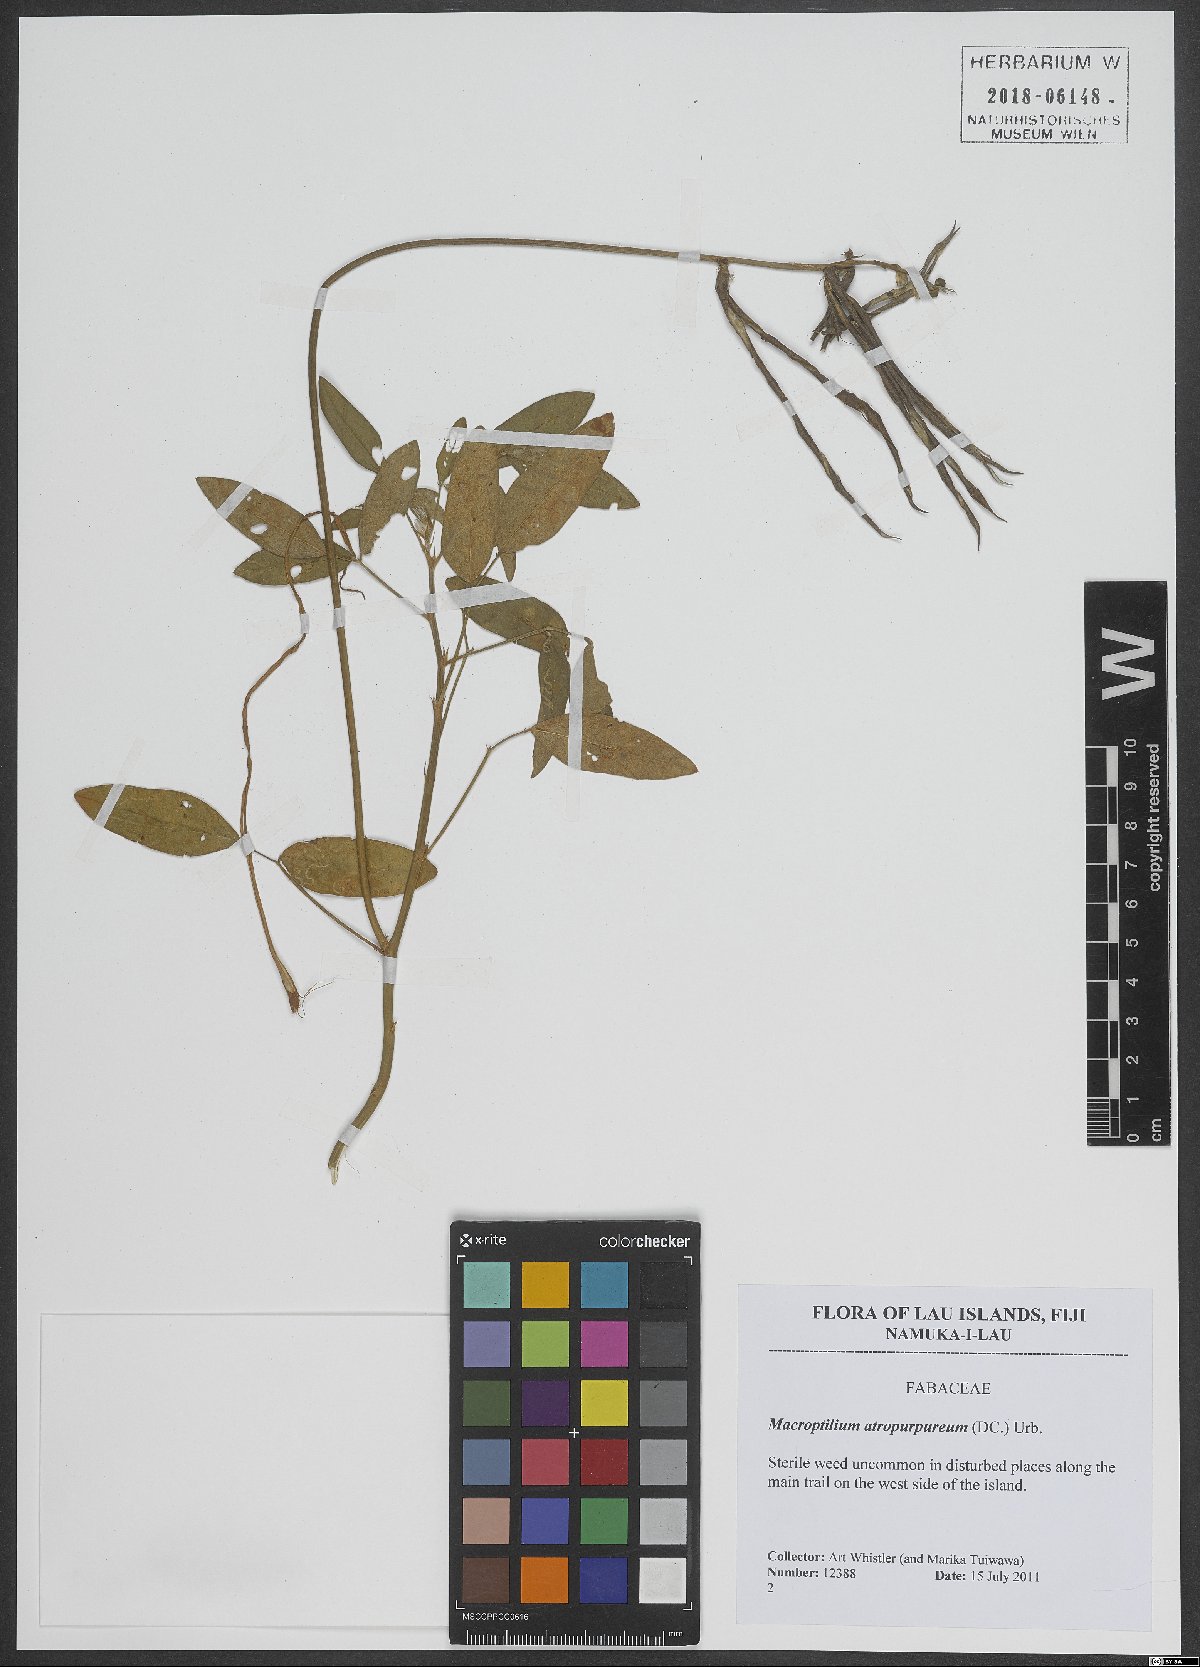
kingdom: Plantae
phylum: Tracheophyta
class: Magnoliopsida
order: Fabales
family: Fabaceae
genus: Macroptilium
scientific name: Macroptilium atropurpureum
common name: Purple bushbean
